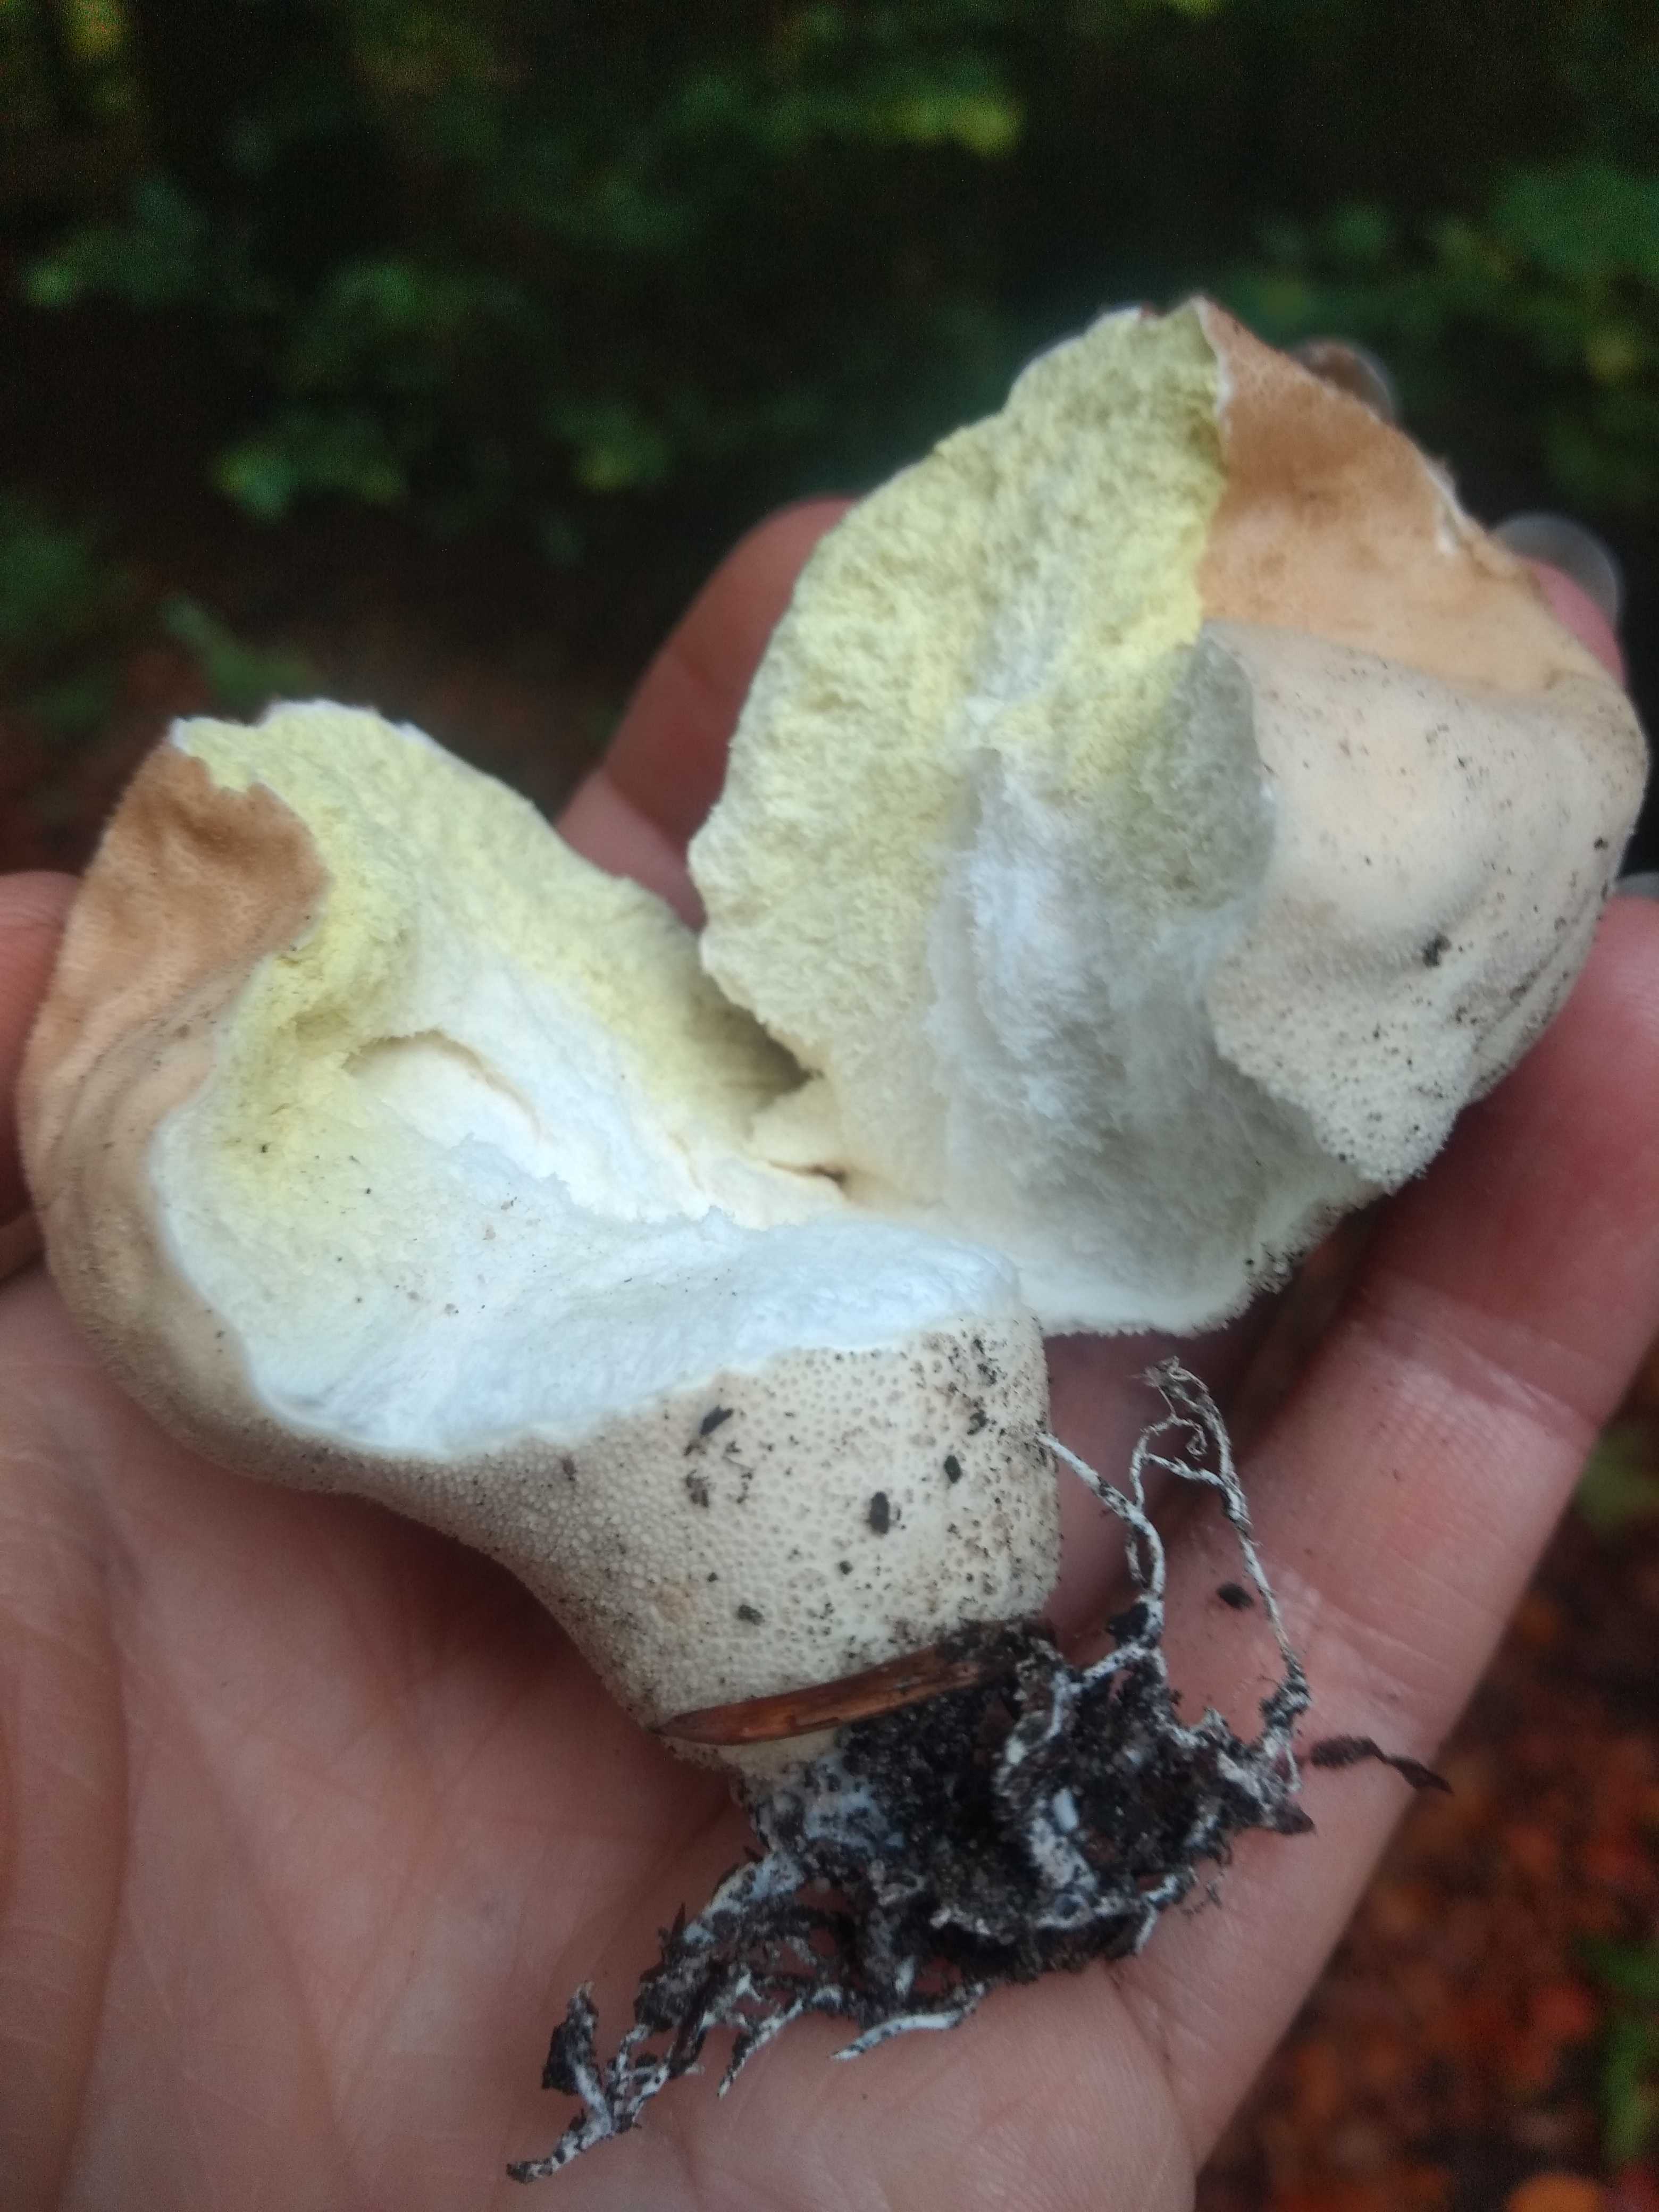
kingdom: Fungi
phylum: Basidiomycota
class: Agaricomycetes
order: Agaricales
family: Lycoperdaceae
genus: Apioperdon
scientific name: Apioperdon pyriforme
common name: pære-støvbold
